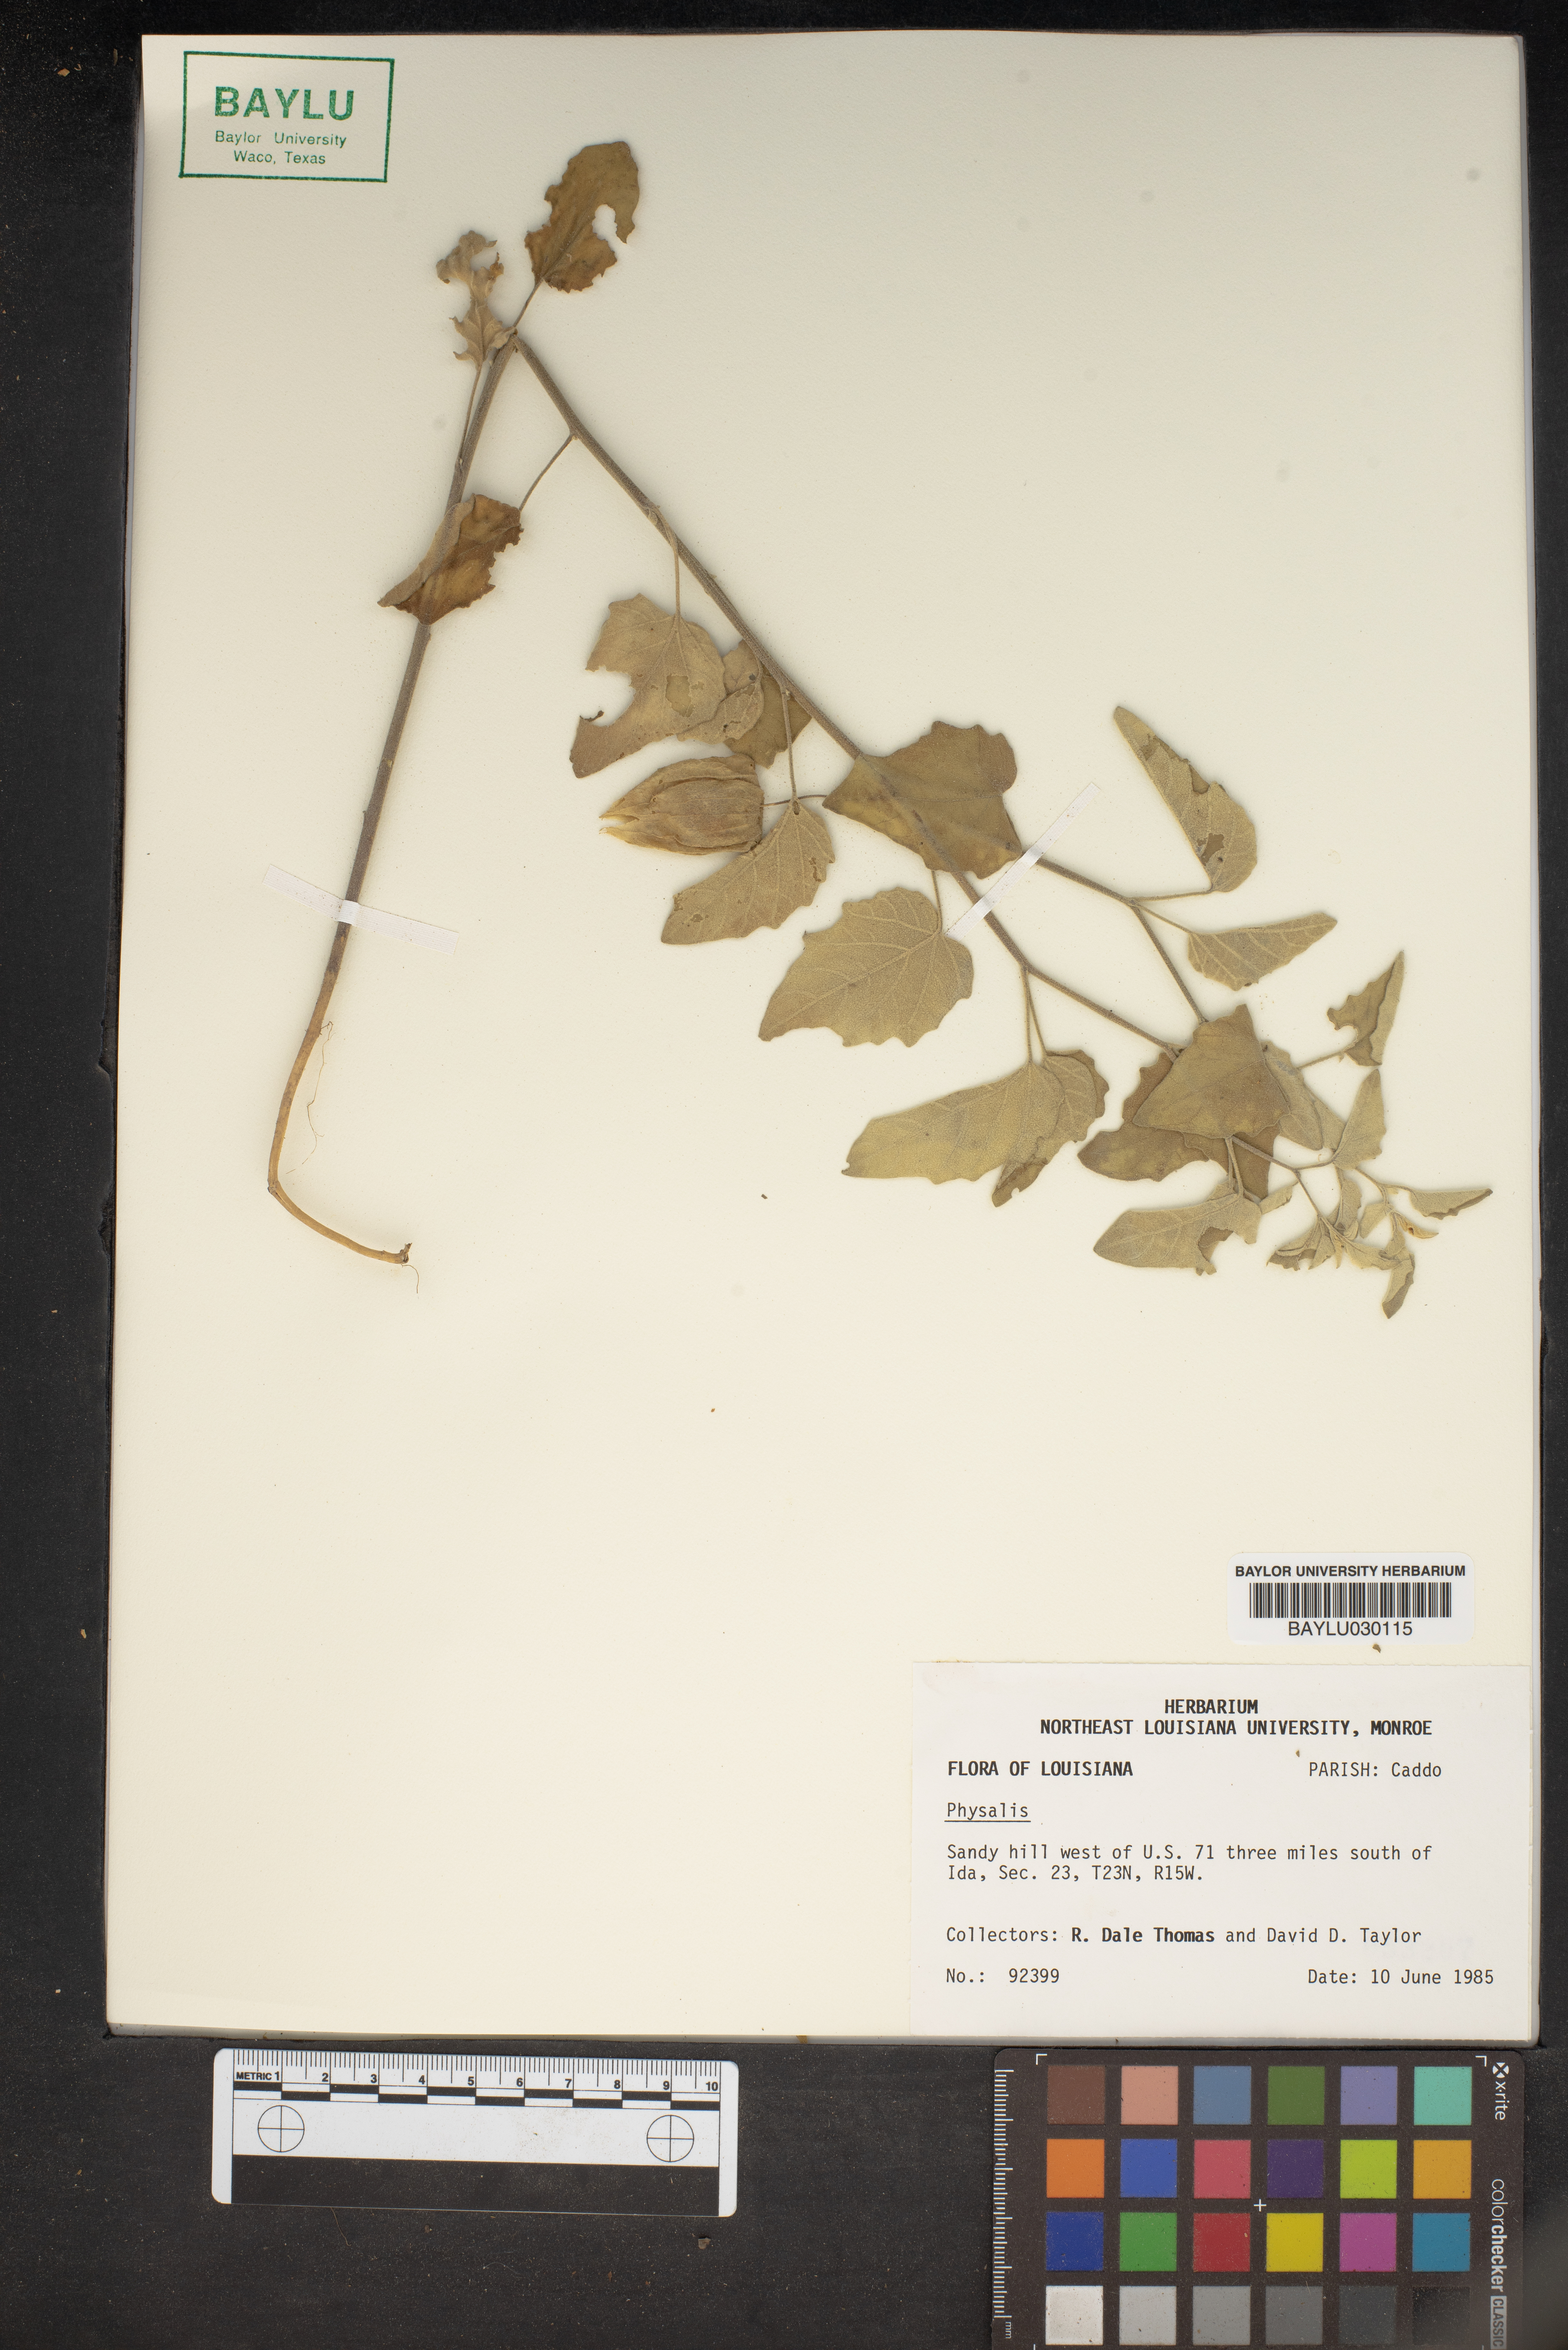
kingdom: Plantae
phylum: Tracheophyta
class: Magnoliopsida
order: Solanales
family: Solanaceae
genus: Physalis
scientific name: Physalis
